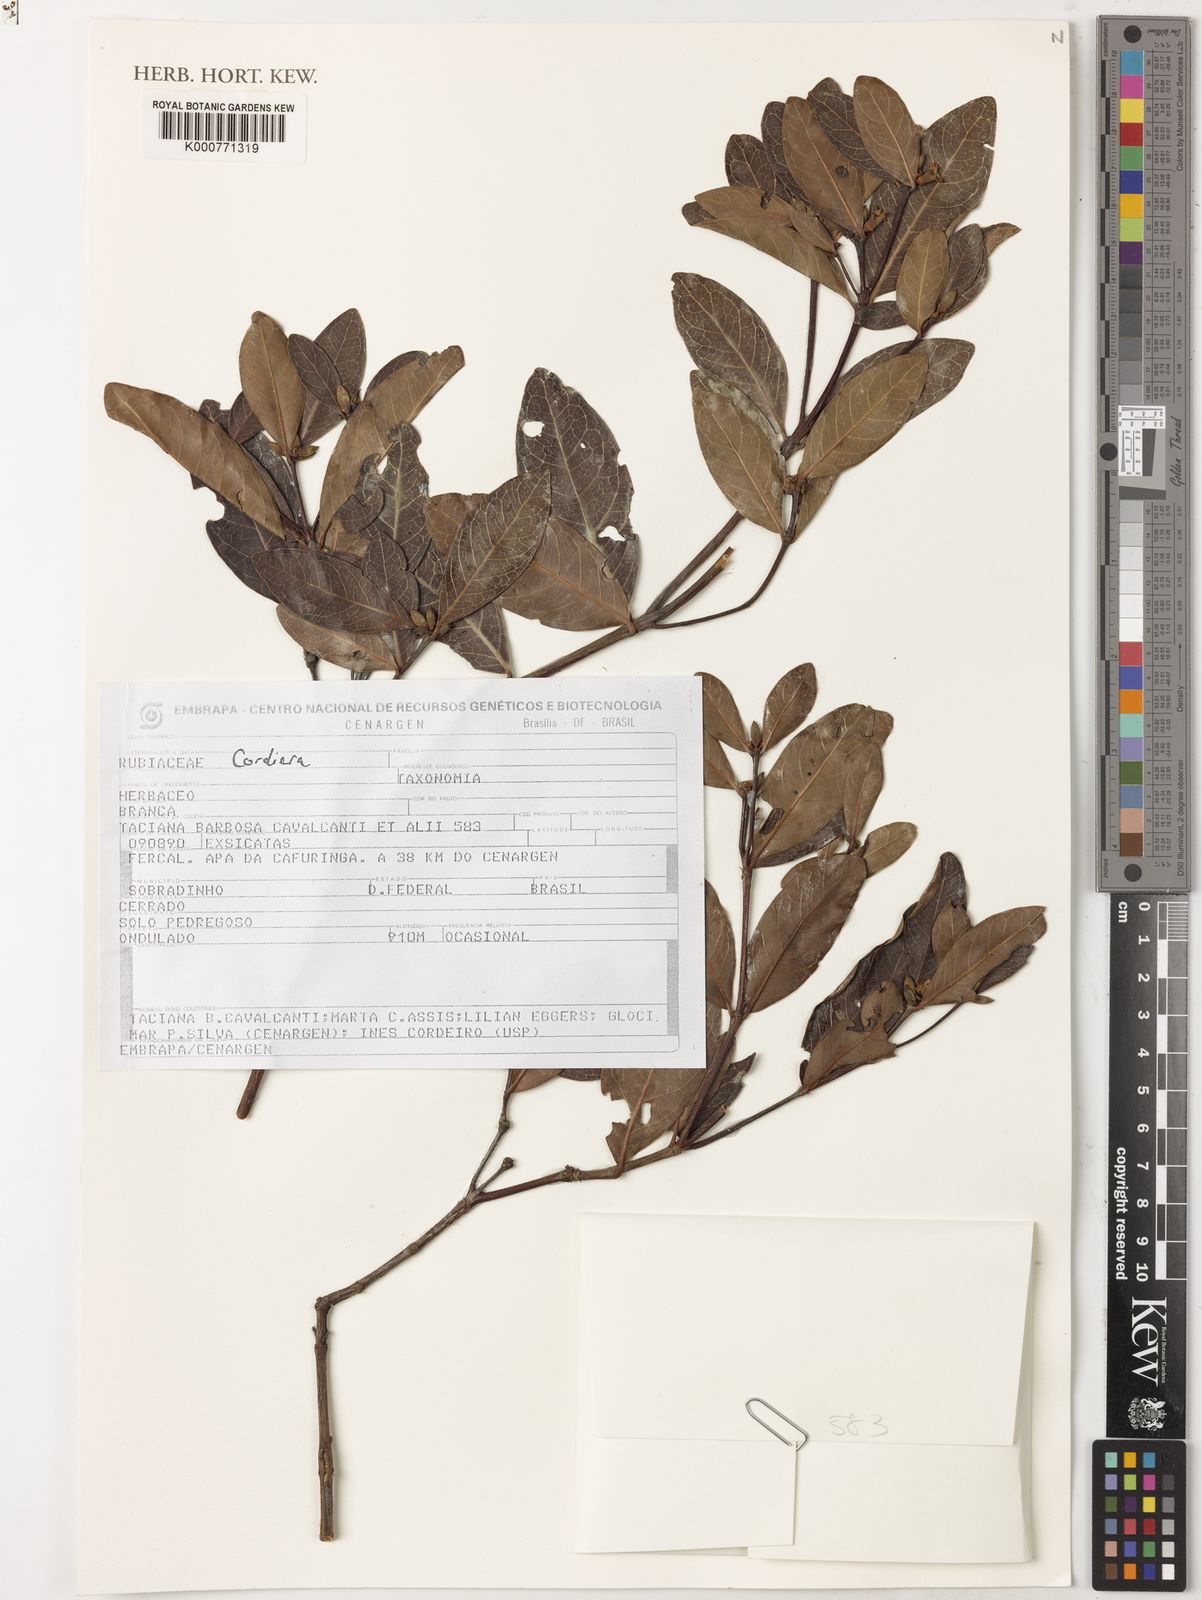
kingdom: Plantae
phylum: Tracheophyta
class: Magnoliopsida
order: Gentianales
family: Rubiaceae
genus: Cordiera
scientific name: Cordiera
